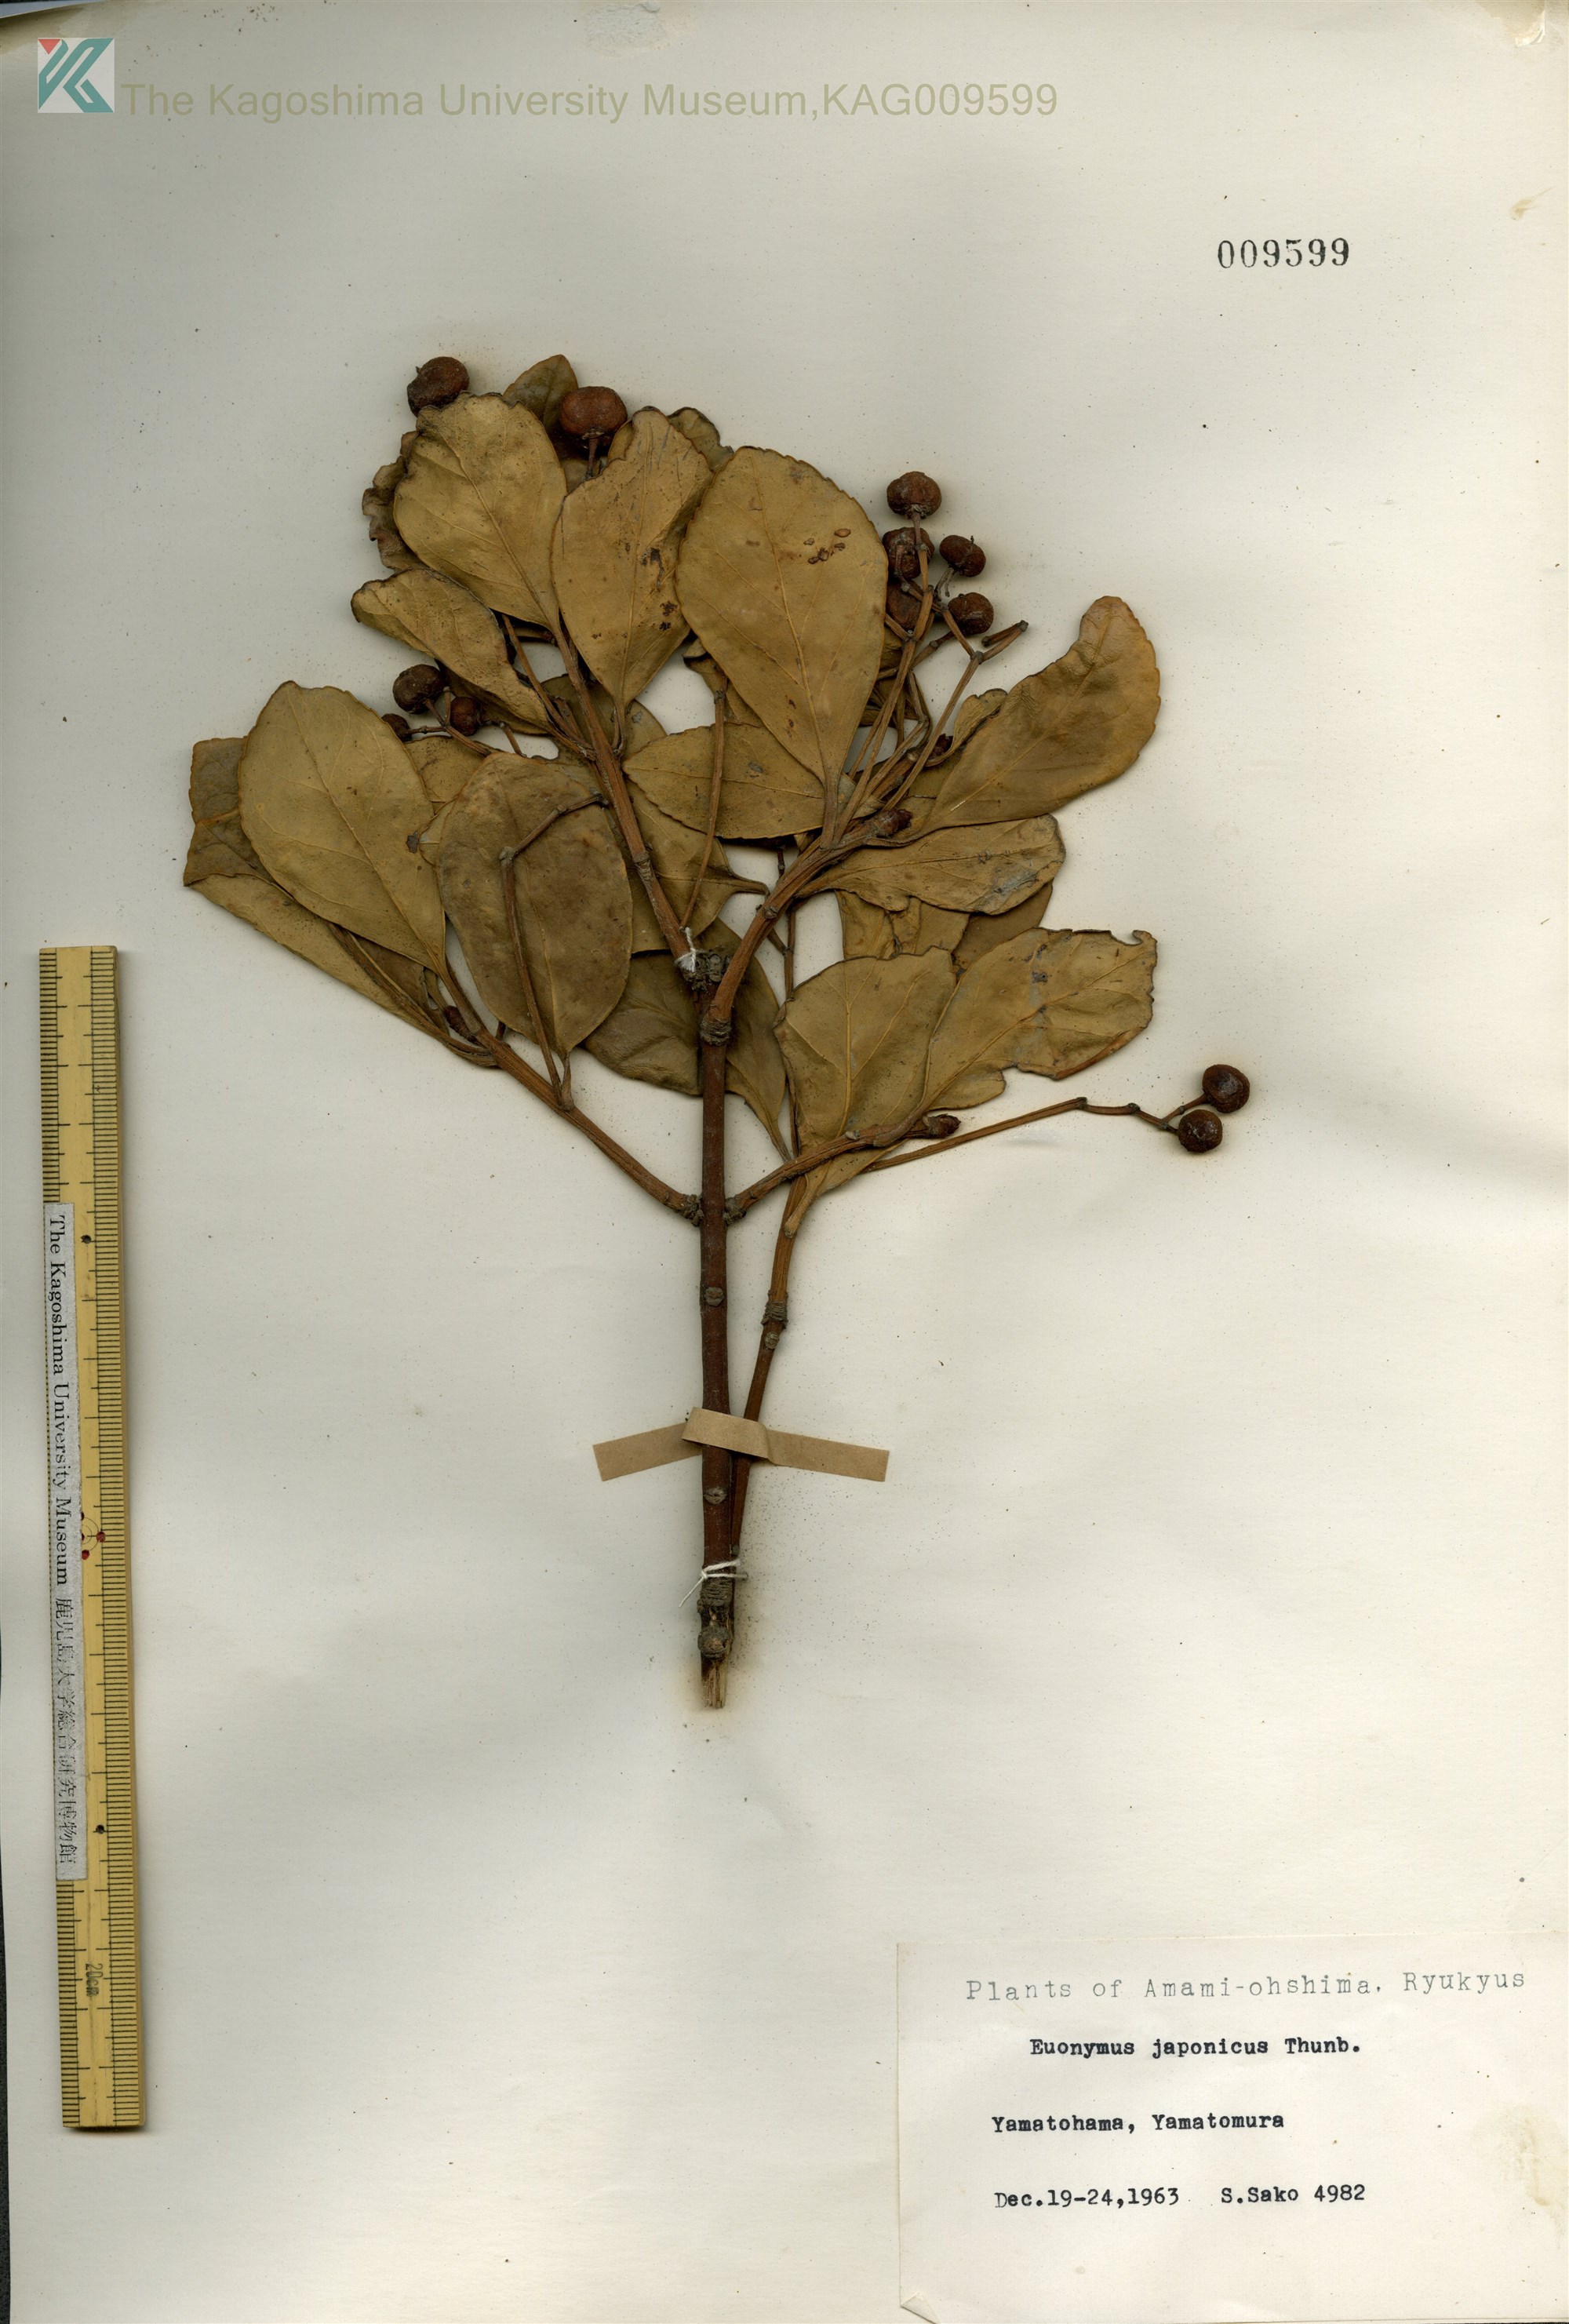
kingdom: Plantae
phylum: Tracheophyta
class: Magnoliopsida
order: Celastrales
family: Celastraceae
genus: Euonymus
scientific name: Euonymus japonicus
